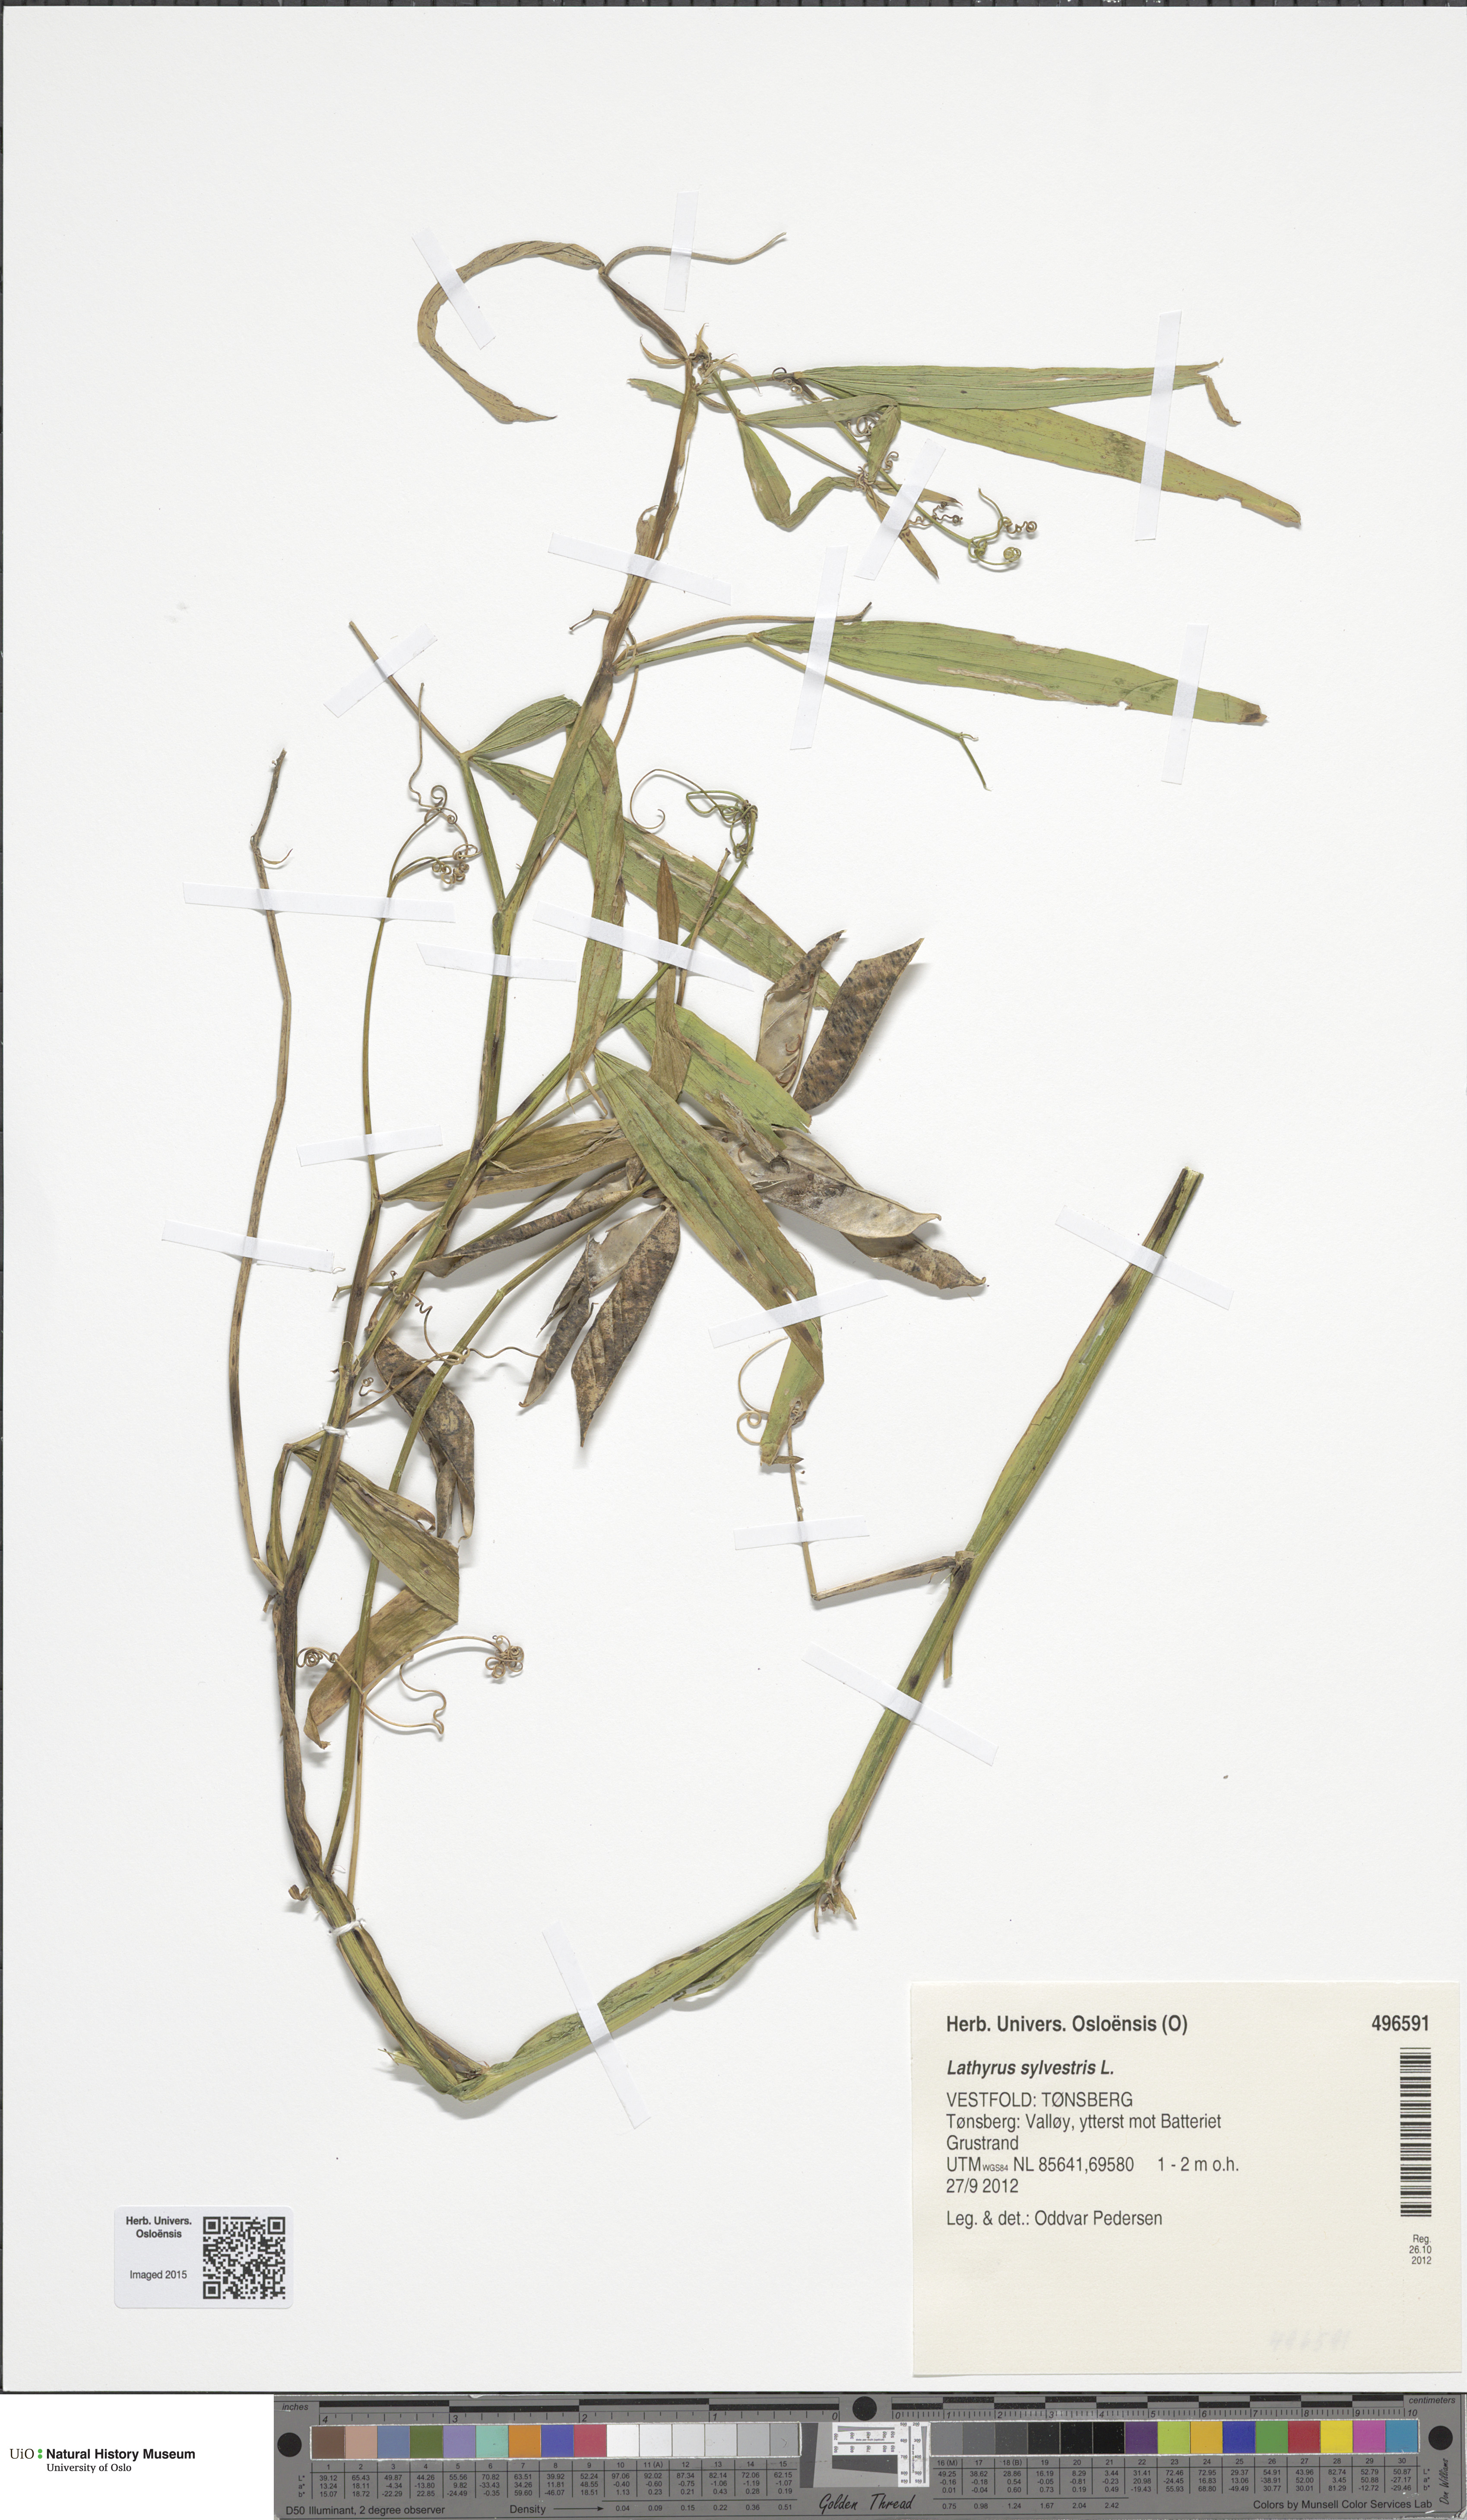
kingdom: Plantae
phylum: Tracheophyta
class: Magnoliopsida
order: Fabales
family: Fabaceae
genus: Lathyrus
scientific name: Lathyrus sylvestris
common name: Flat pea
